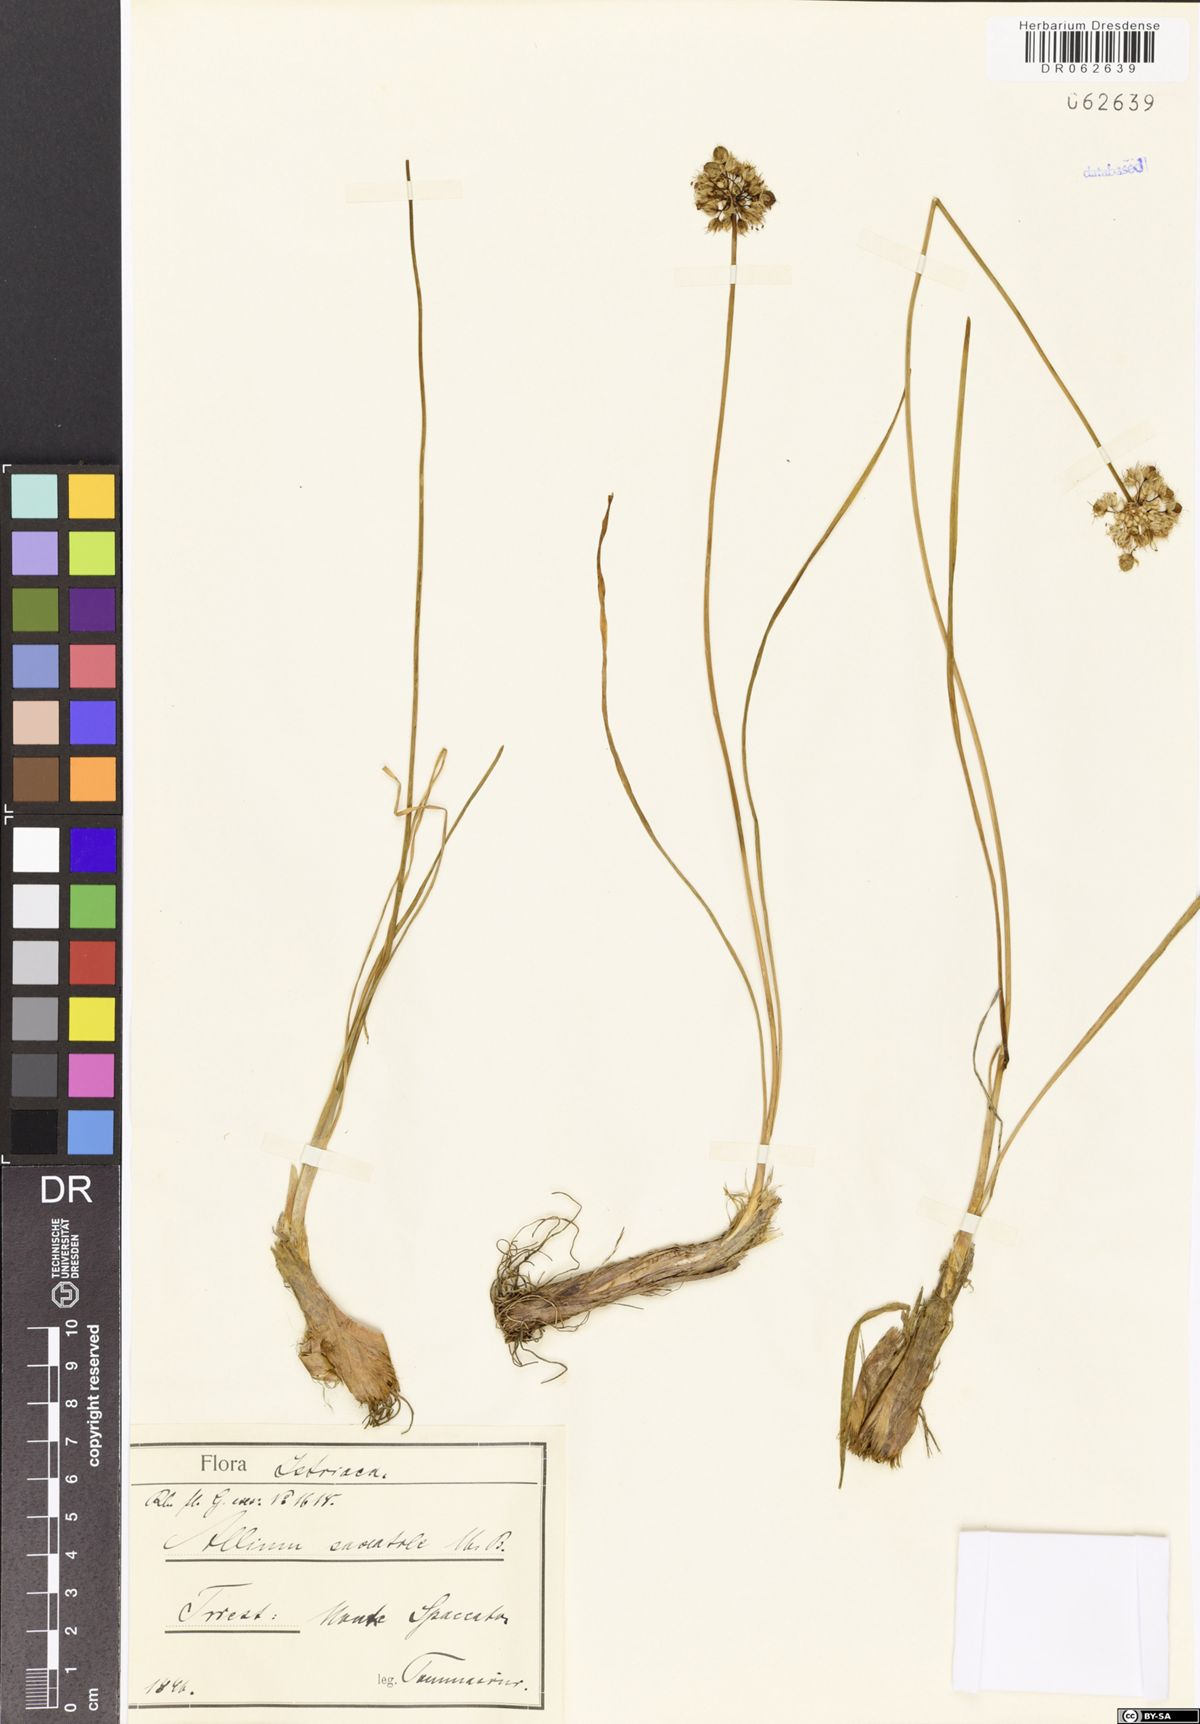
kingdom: Plantae
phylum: Tracheophyta
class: Liliopsida
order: Asparagales
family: Amaryllidaceae
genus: Allium
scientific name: Allium saxatile
